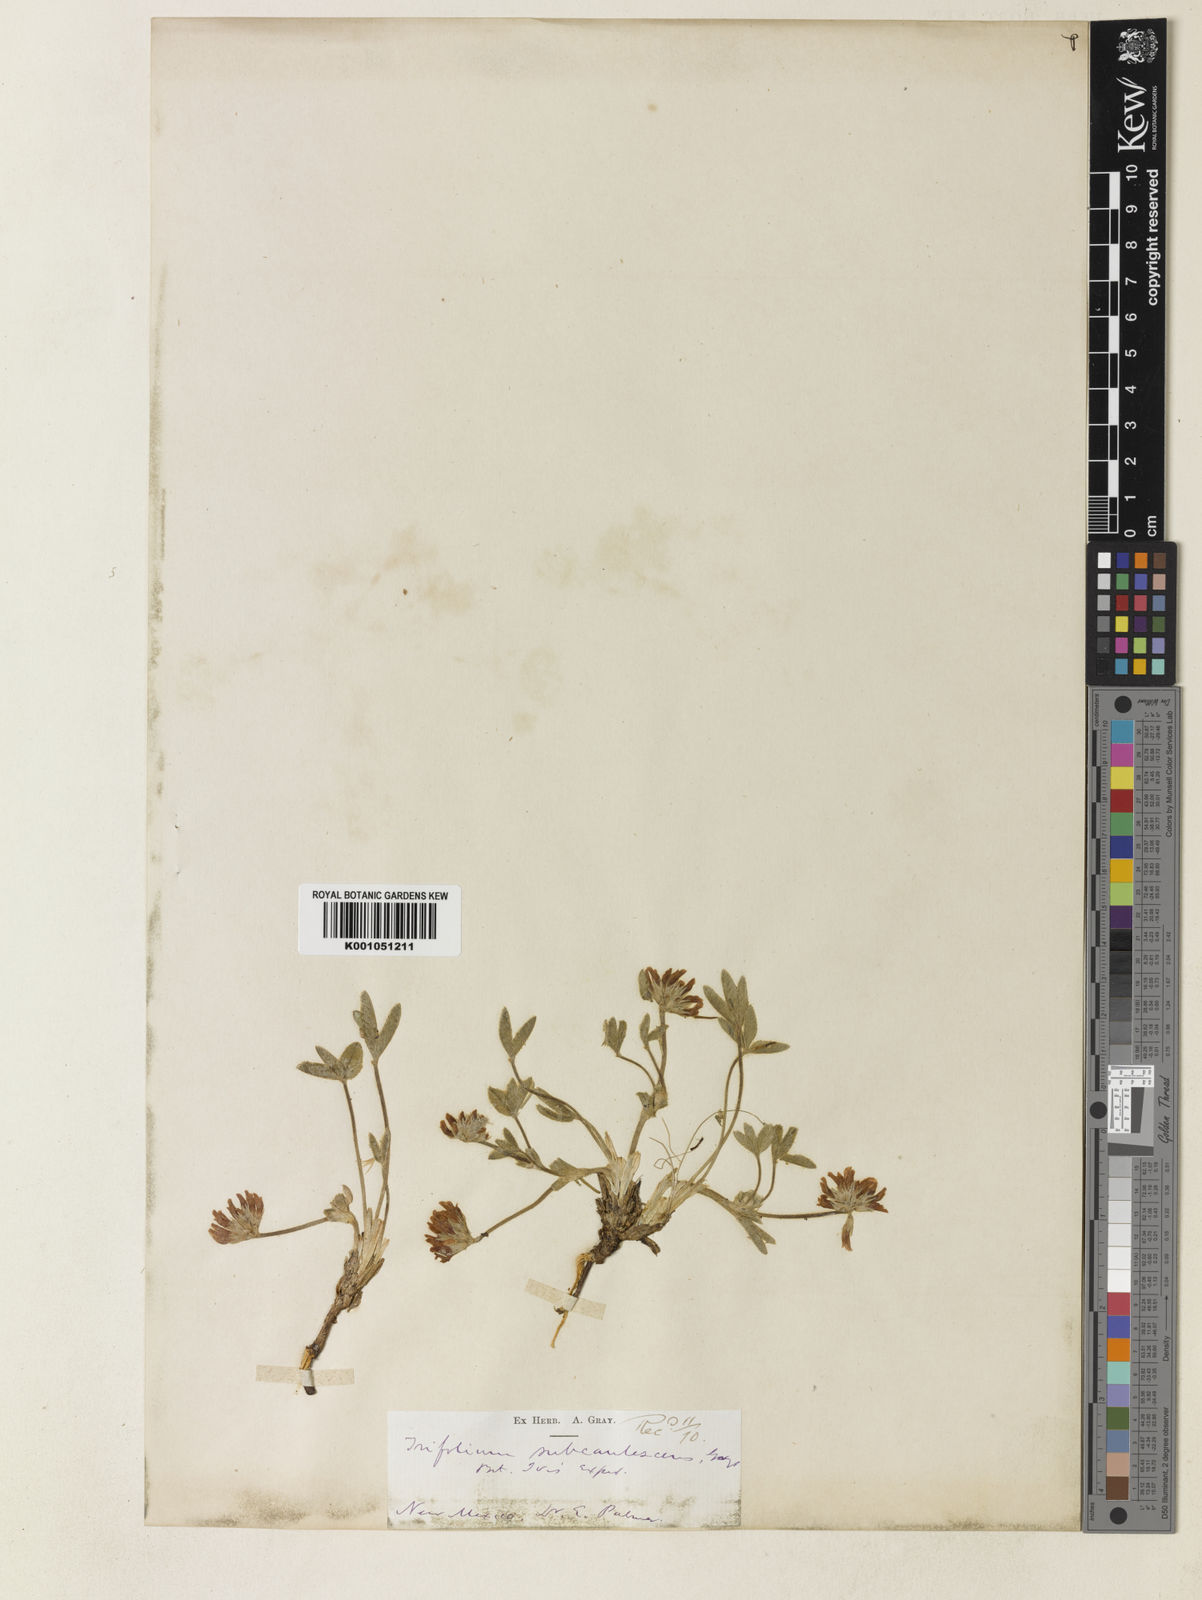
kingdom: Plantae
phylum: Tracheophyta
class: Magnoliopsida
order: Fabales
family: Fabaceae
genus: Trifolium
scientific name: Trifolium gymnocarpon
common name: Tufted clover
